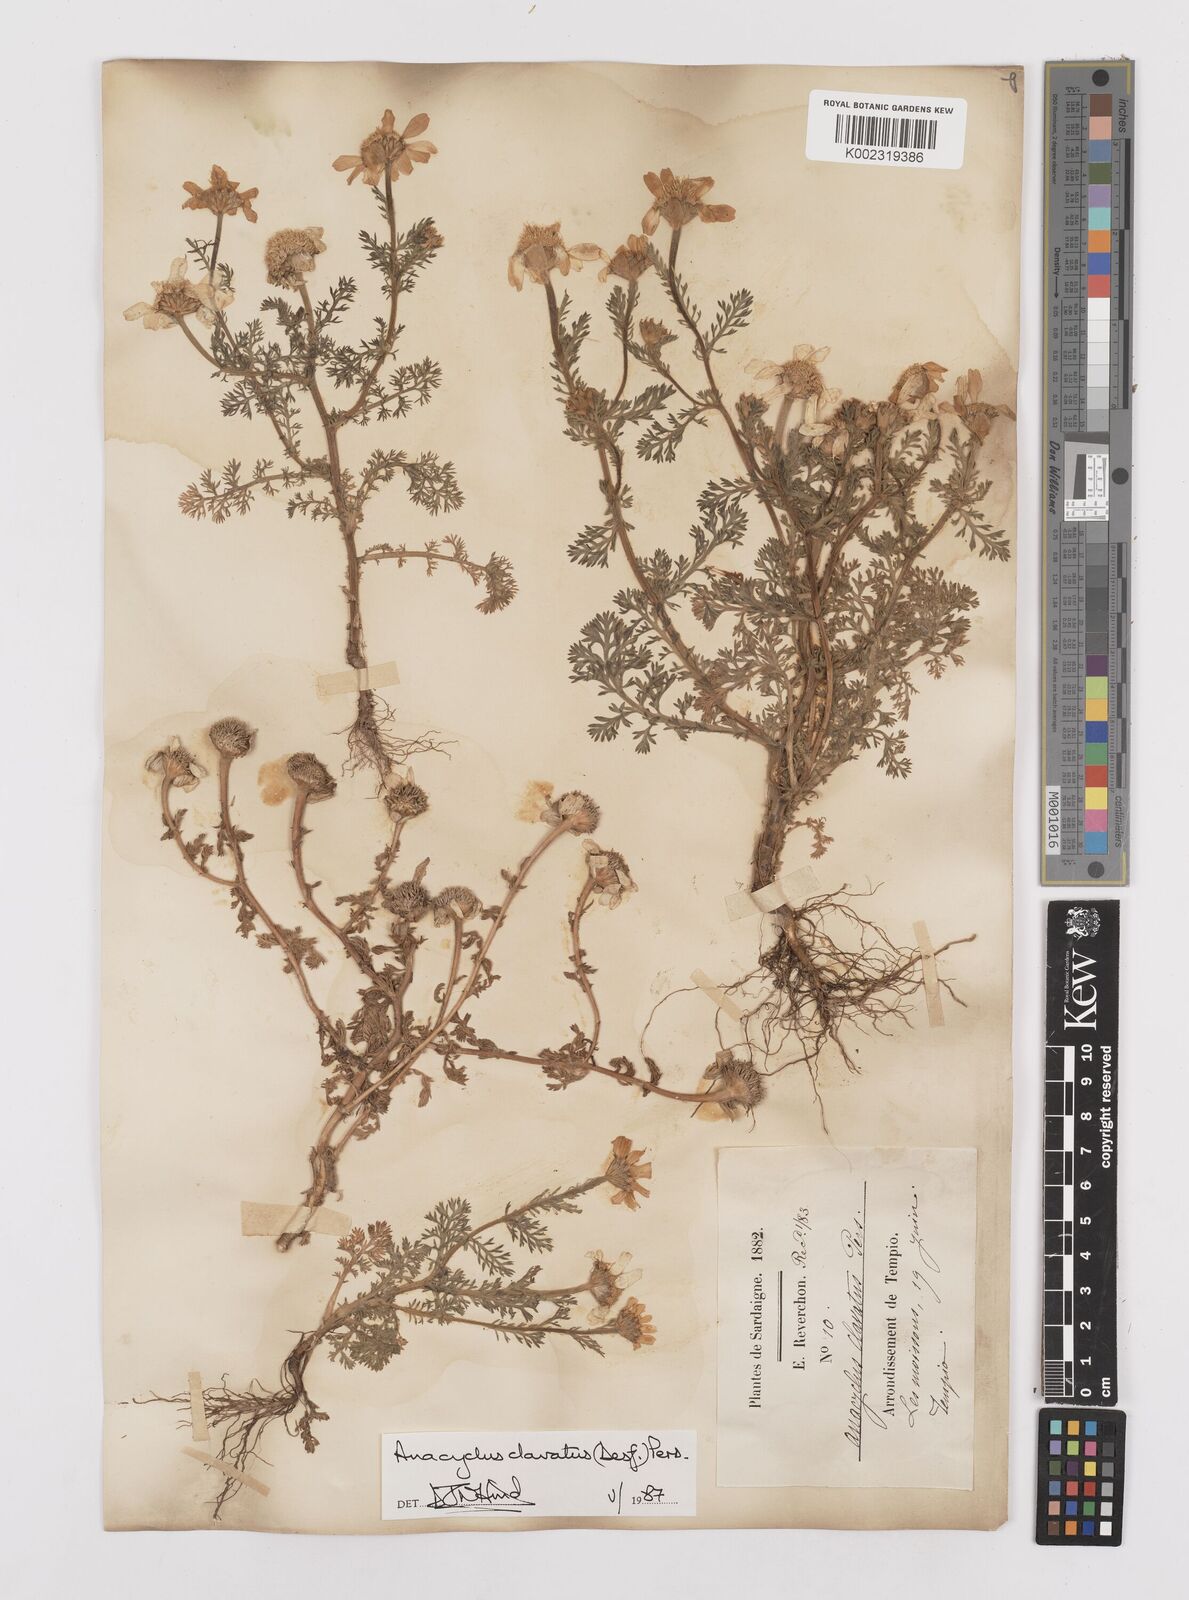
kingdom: Plantae
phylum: Tracheophyta
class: Magnoliopsida
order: Asterales
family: Asteraceae
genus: Anacyclus
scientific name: Anacyclus clavatus
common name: Whitebuttons
